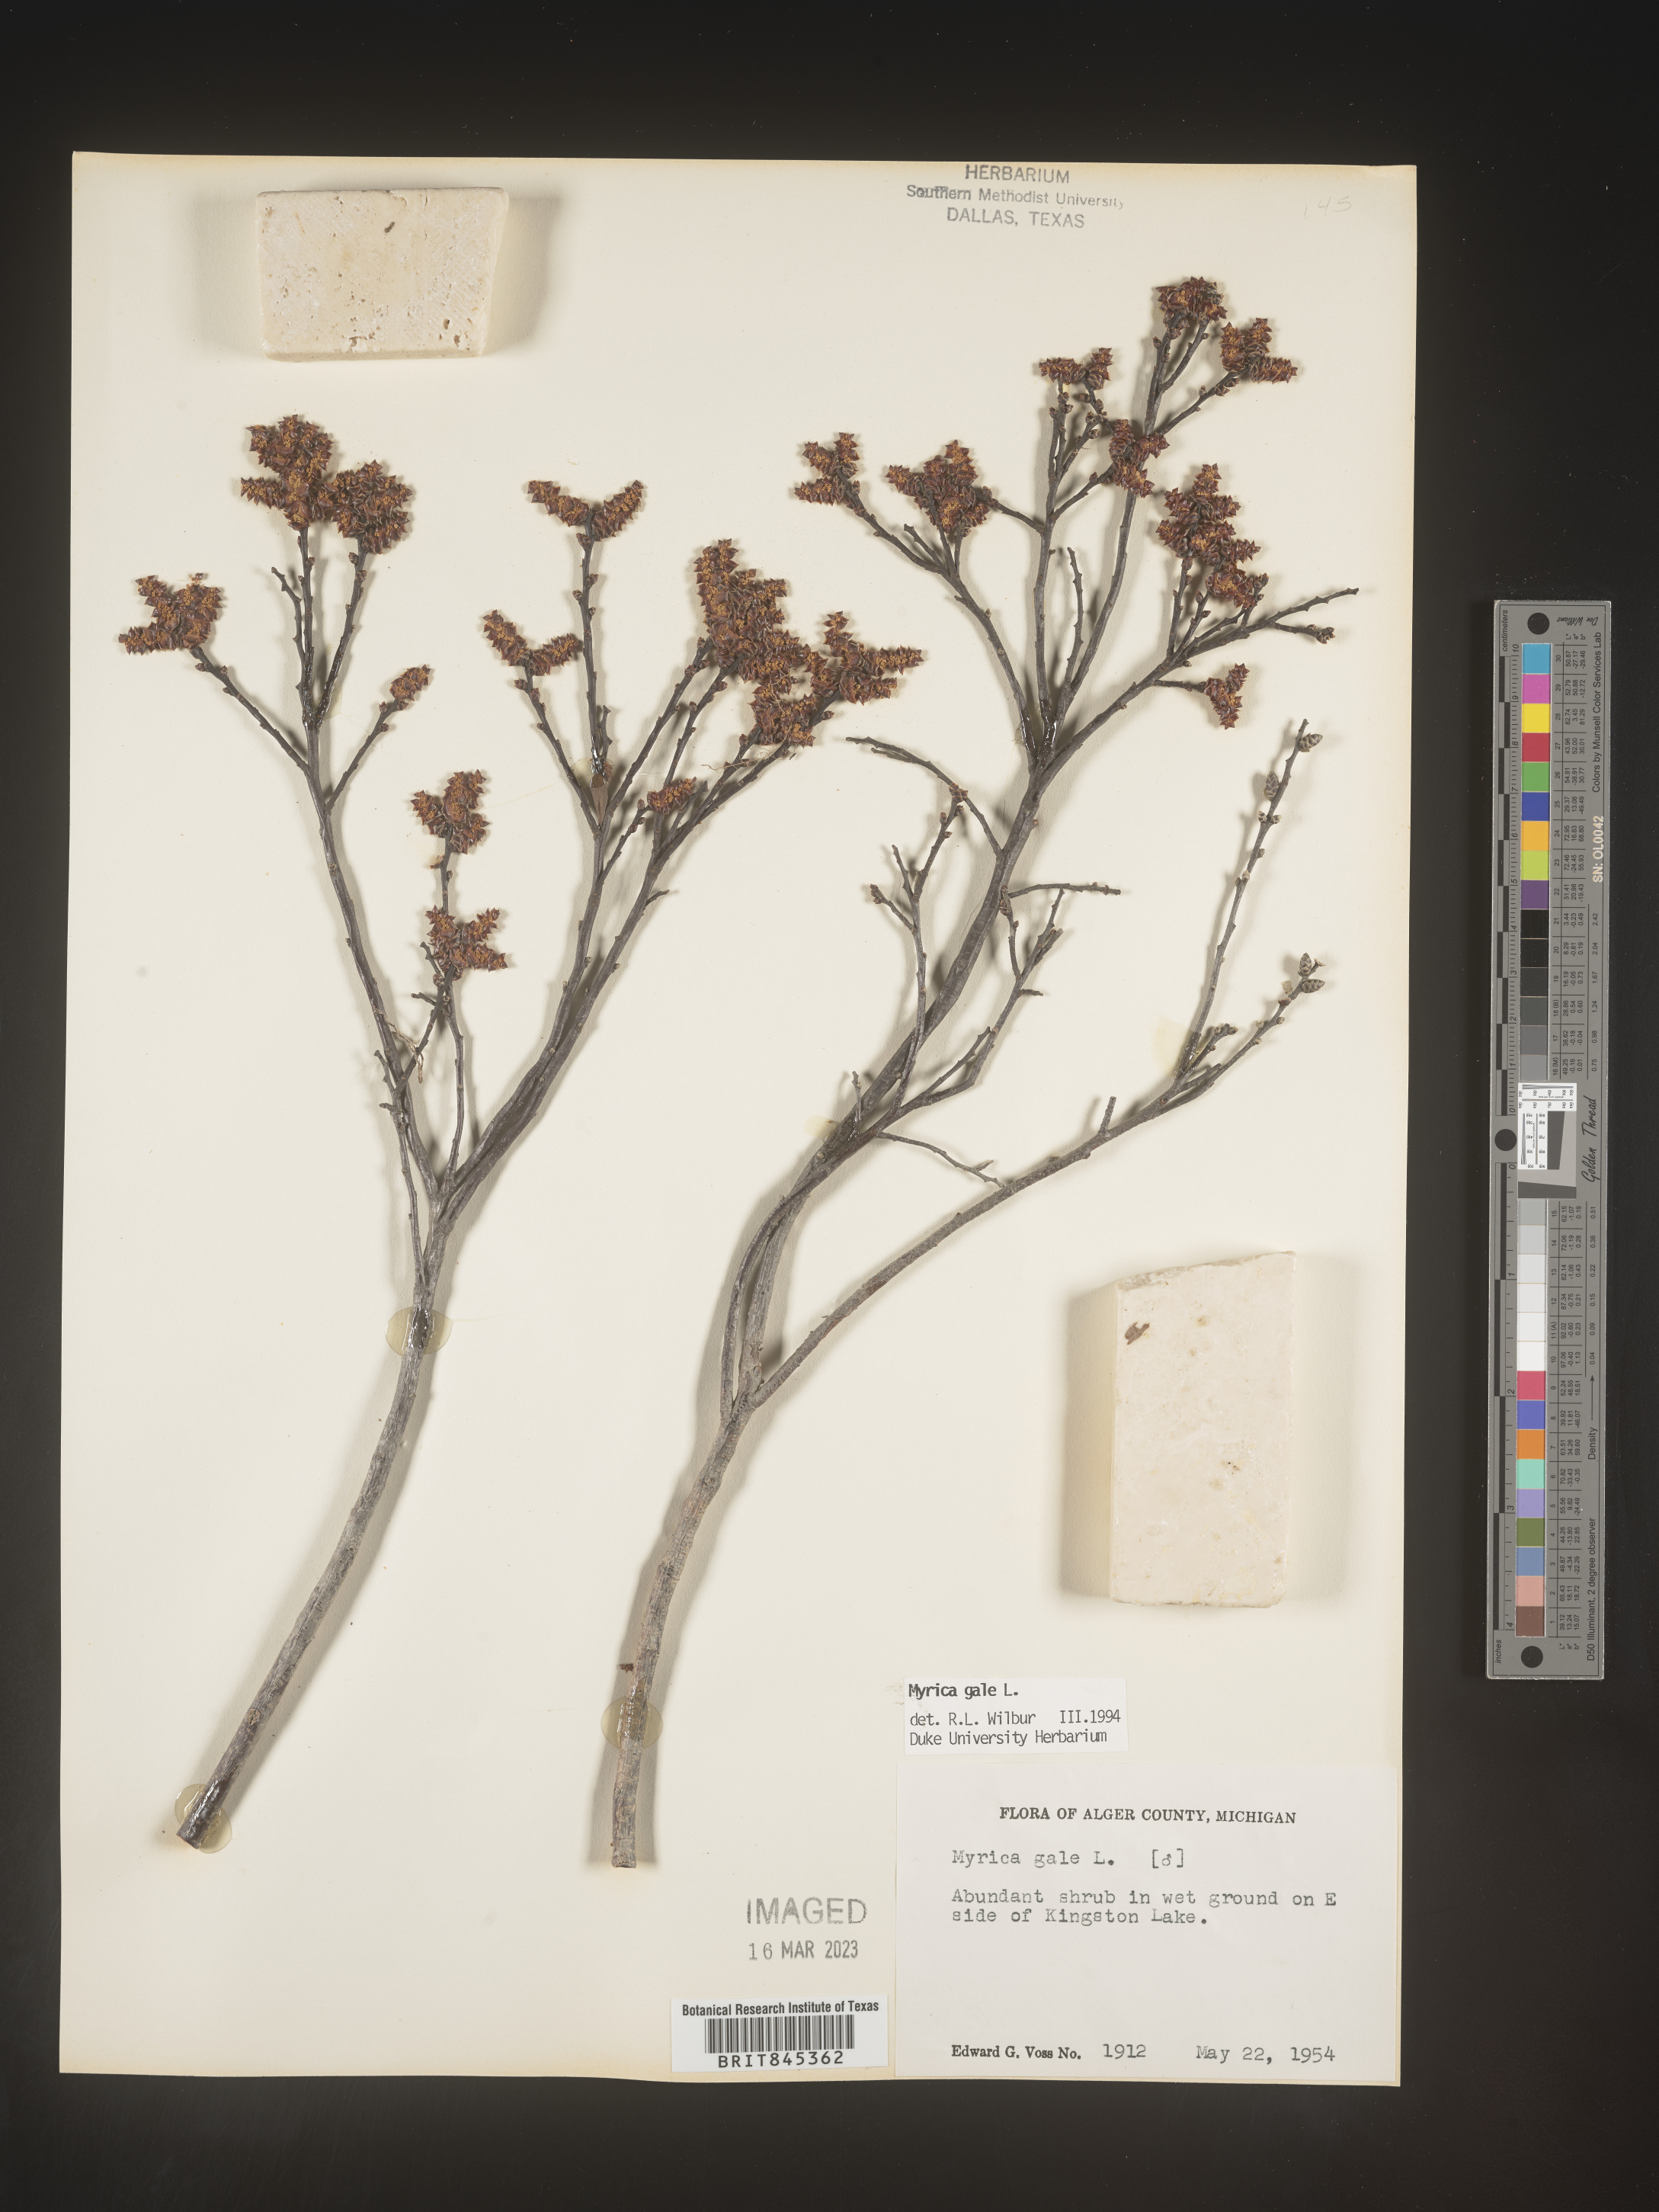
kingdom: Plantae
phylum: Tracheophyta
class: Magnoliopsida
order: Fagales
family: Myricaceae
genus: Myrica
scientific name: Myrica gale
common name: Sweet gale
